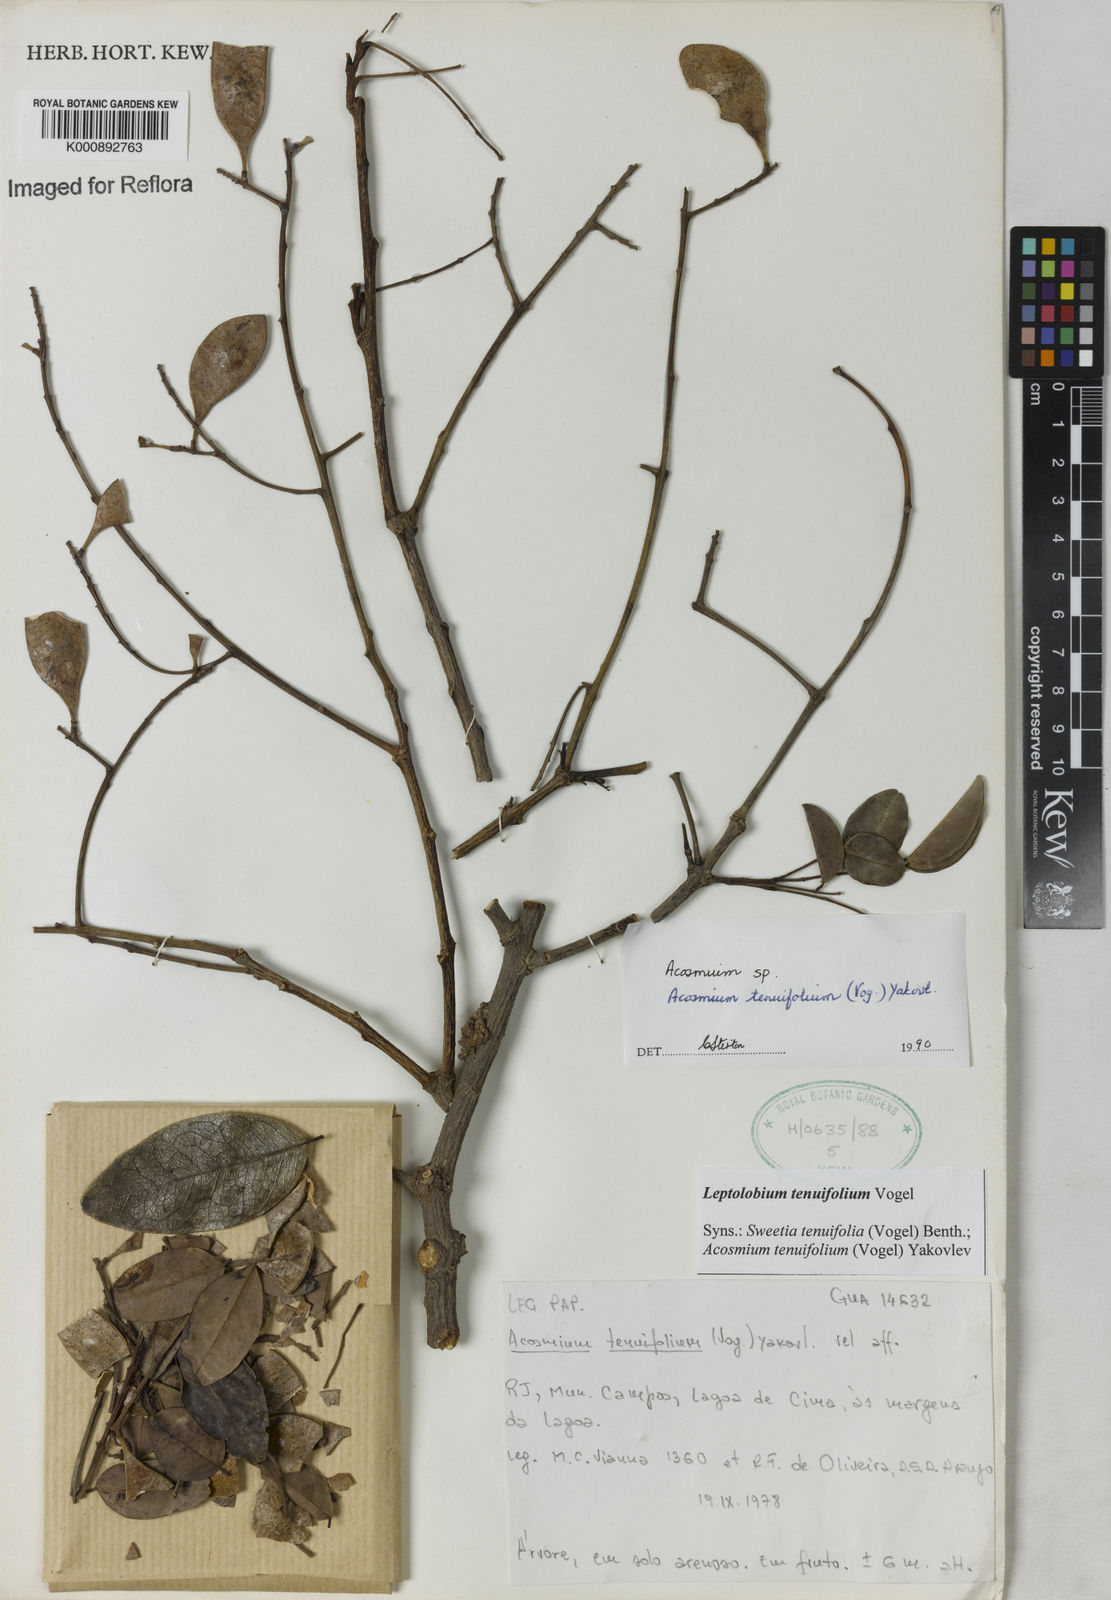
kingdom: Plantae
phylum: Tracheophyta
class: Magnoliopsida
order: Fabales
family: Fabaceae
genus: Leptolobium
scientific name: Leptolobium tenuifolium
